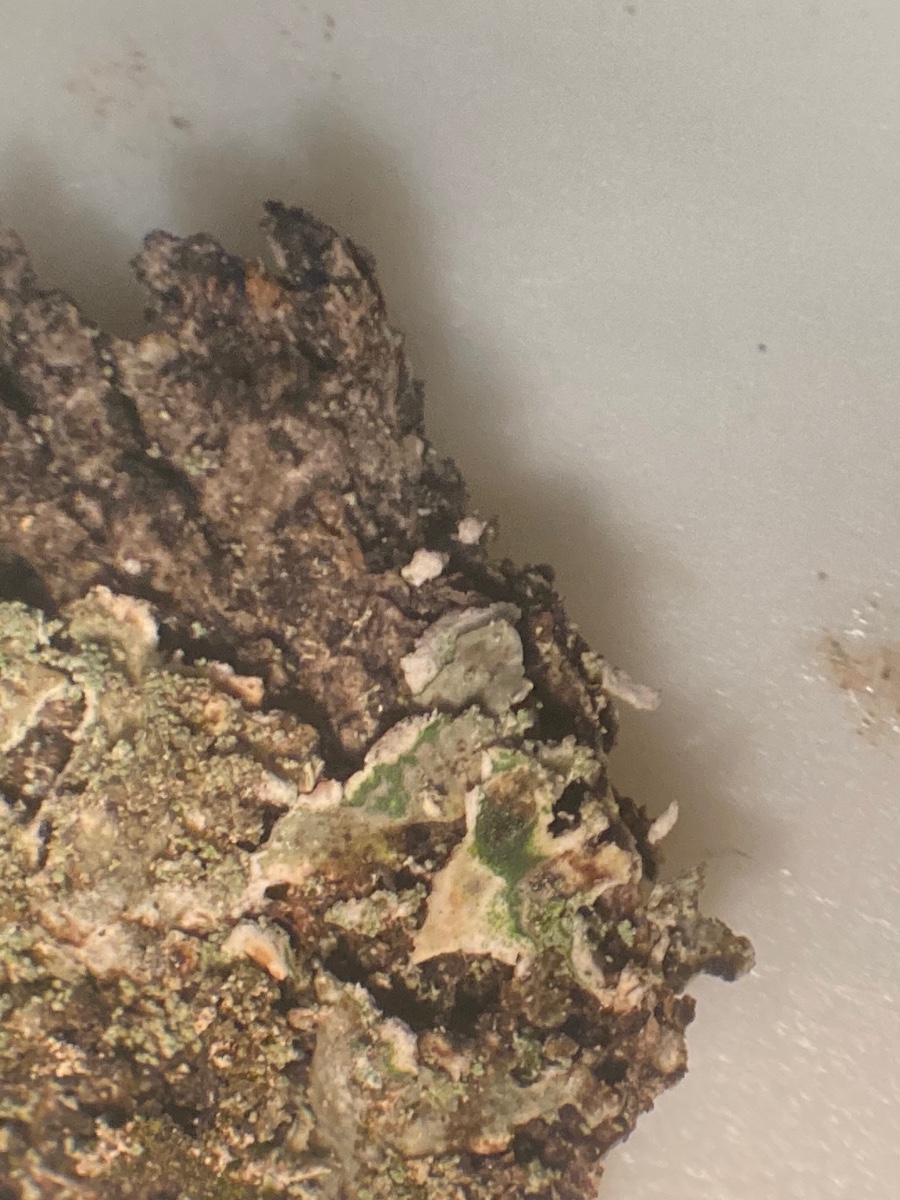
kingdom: Fungi
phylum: Ascomycota
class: Lecanoromycetes
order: Caliciales
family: Physciaceae
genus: Poeltonia
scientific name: Poeltonia grisea
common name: hvidgrå dugrosetlav
